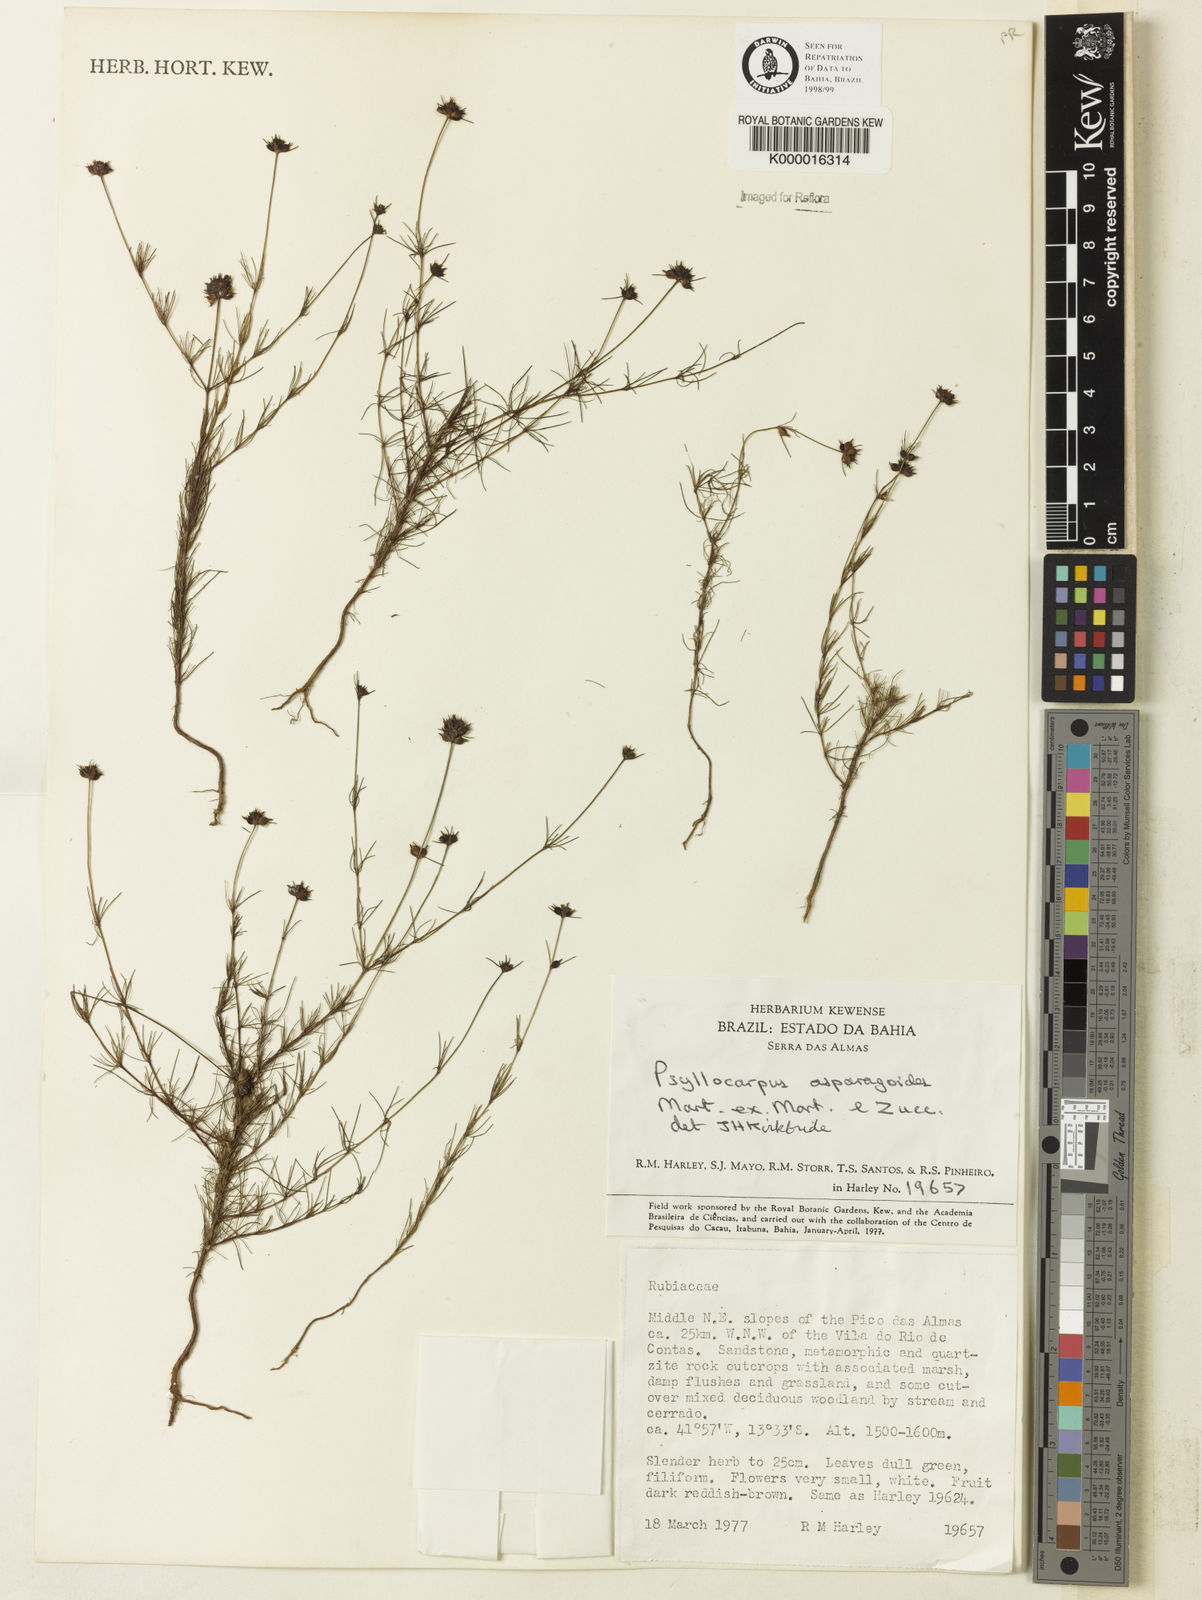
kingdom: Plantae
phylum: Tracheophyta
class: Magnoliopsida
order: Gentianales
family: Rubiaceae
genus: Psyllocarpus
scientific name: Psyllocarpus asparagoides
